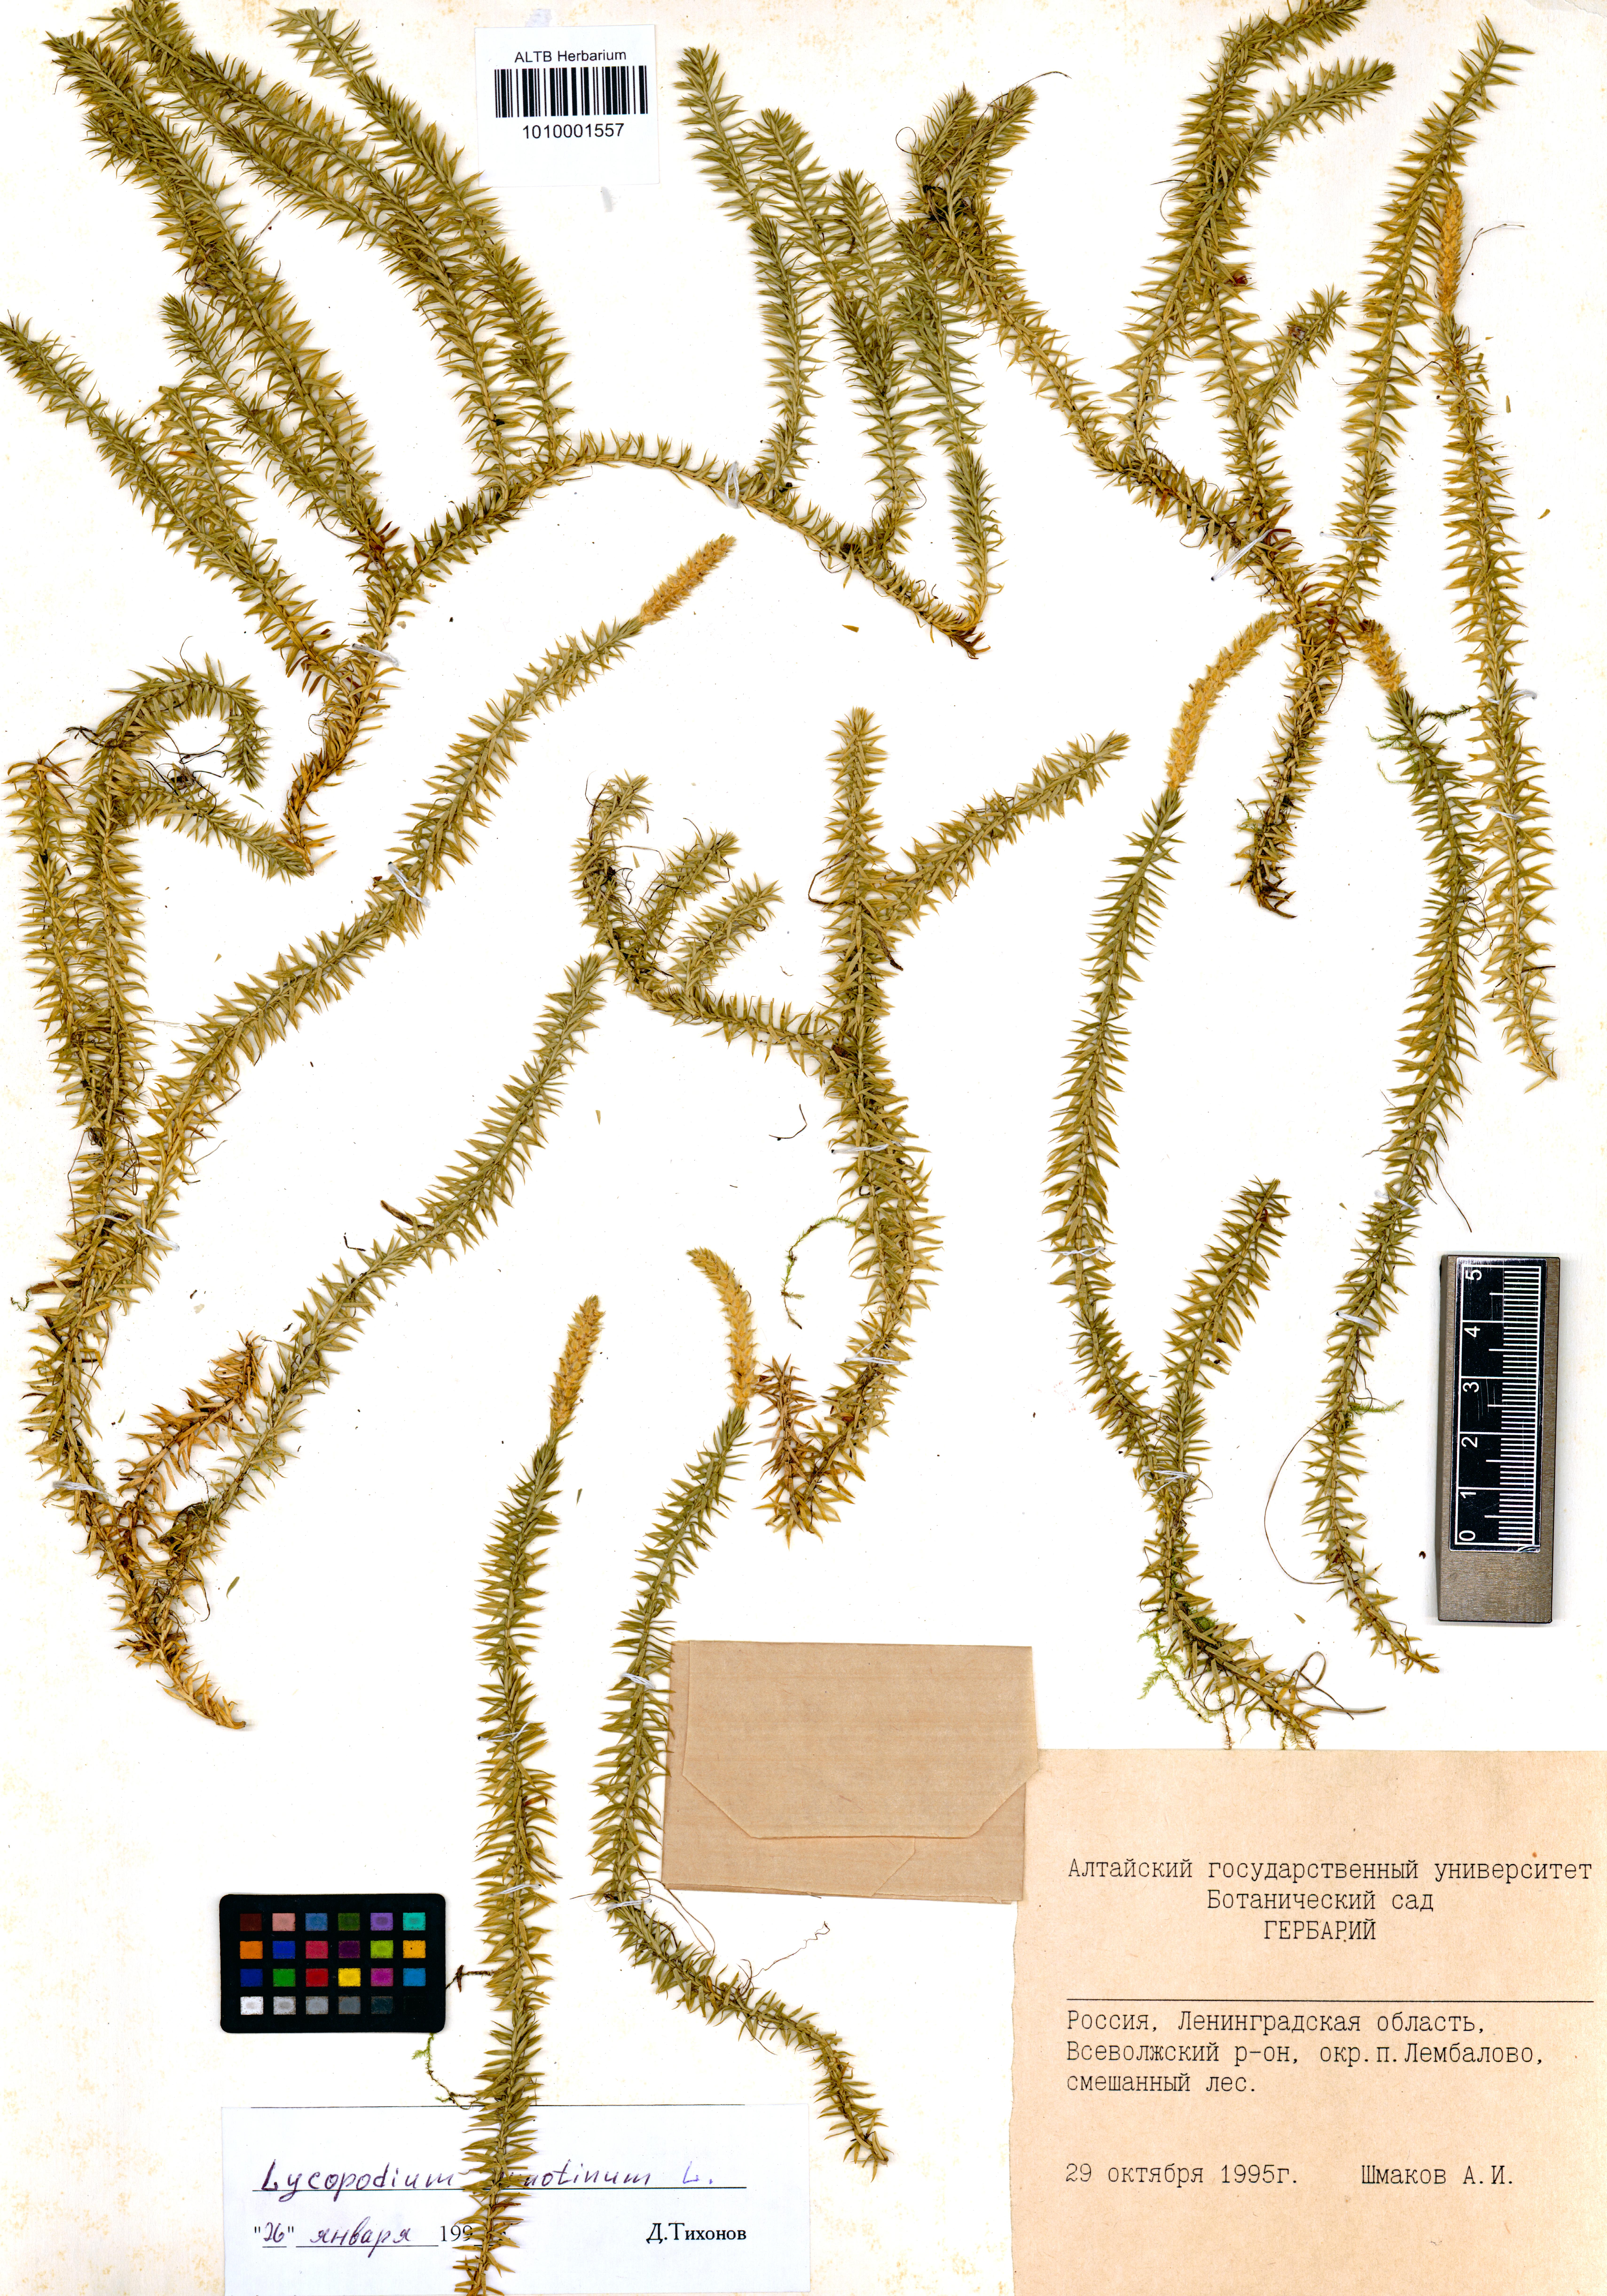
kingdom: Plantae
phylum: Tracheophyta
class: Lycopodiopsida
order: Lycopodiales
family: Lycopodiaceae
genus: Spinulum
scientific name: Spinulum annotinum
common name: Interrupted club-moss
